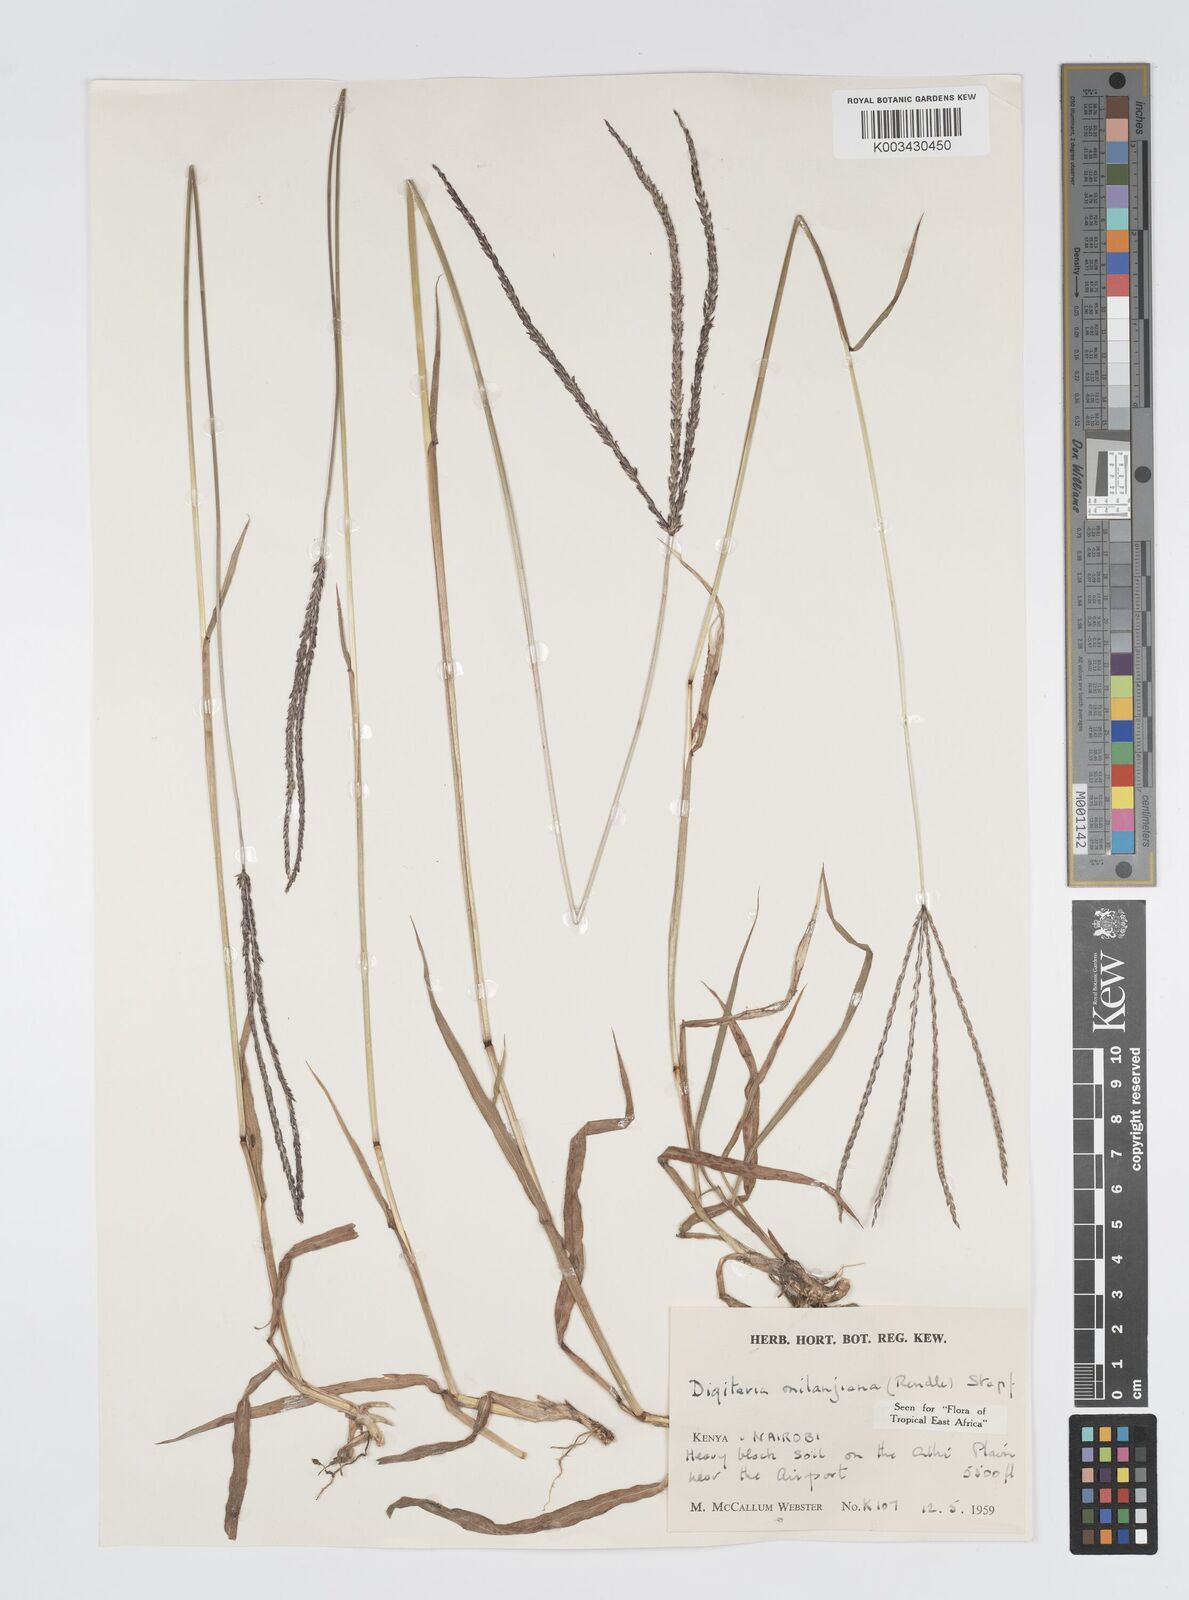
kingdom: Plantae
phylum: Tracheophyta
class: Liliopsida
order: Poales
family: Poaceae
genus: Digitaria
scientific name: Digitaria milanjiana
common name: Madagascar crabgrass
